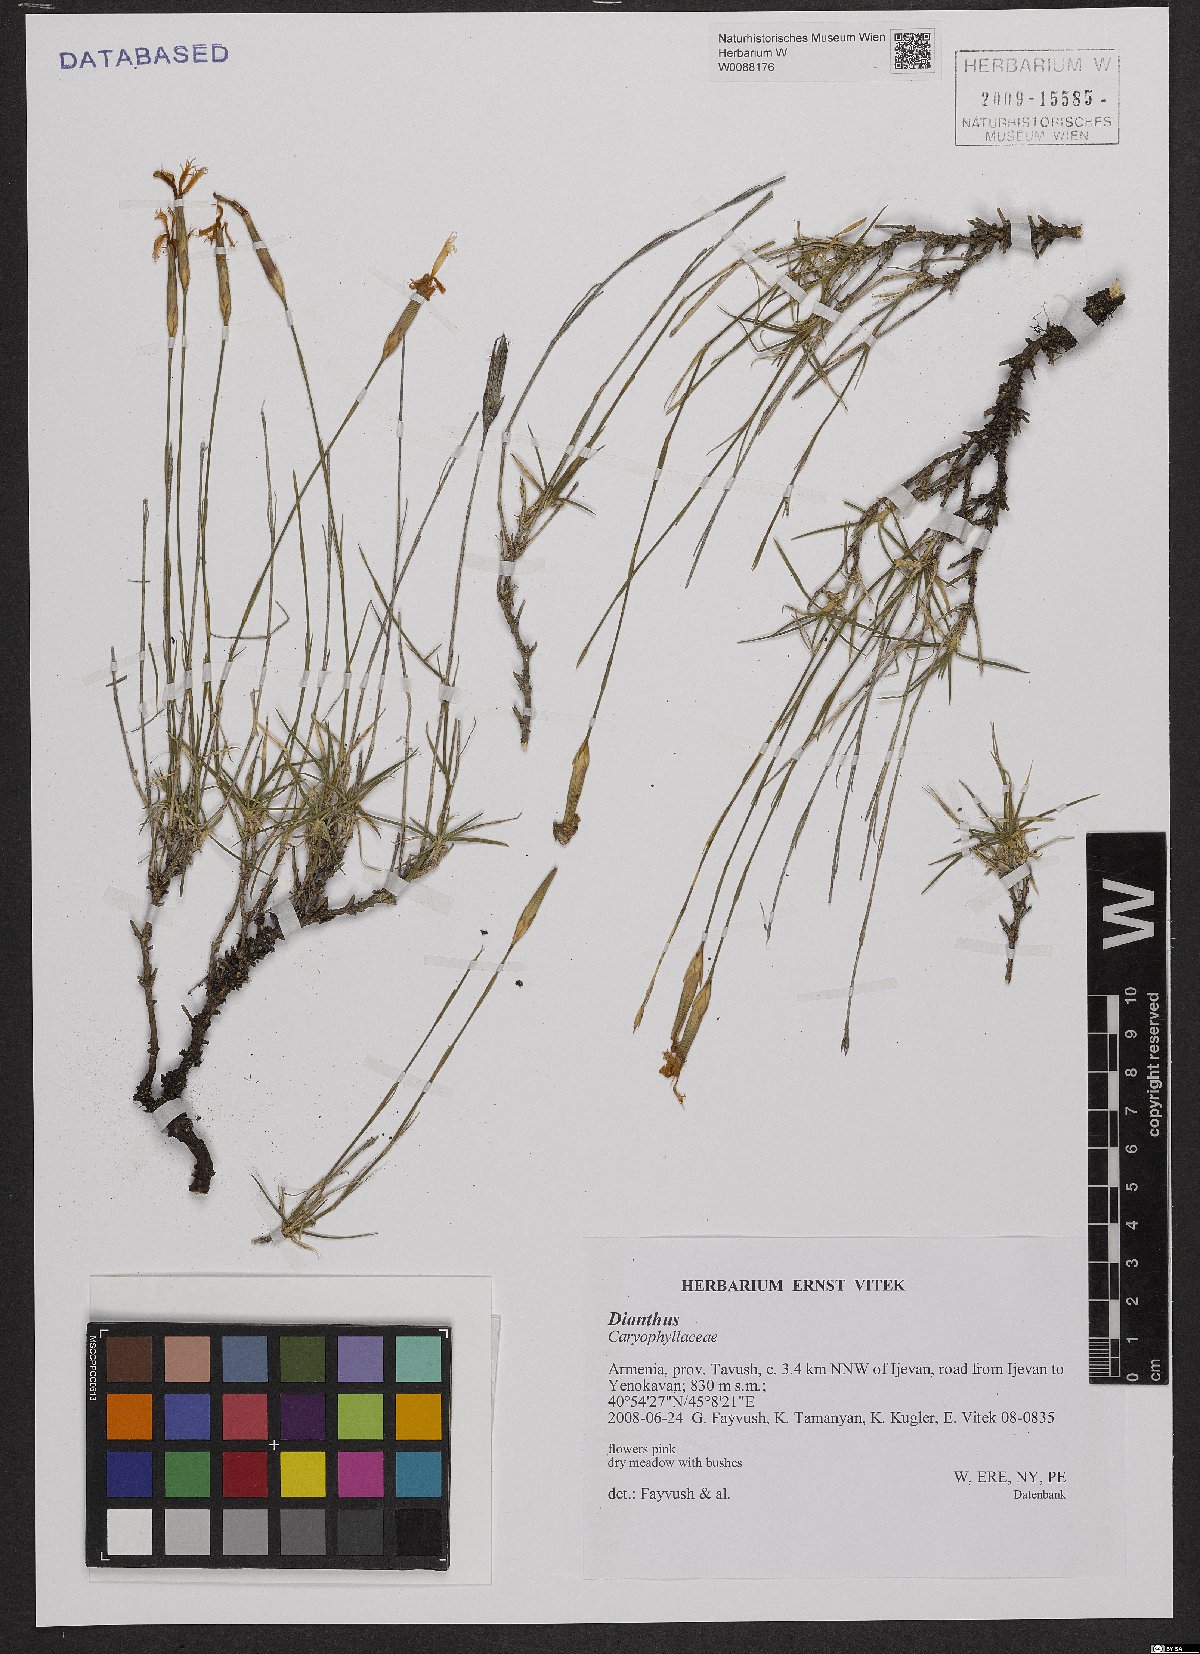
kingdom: Plantae
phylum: Tracheophyta
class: Magnoliopsida
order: Caryophyllales
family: Caryophyllaceae
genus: Dianthus
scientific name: Dianthus
